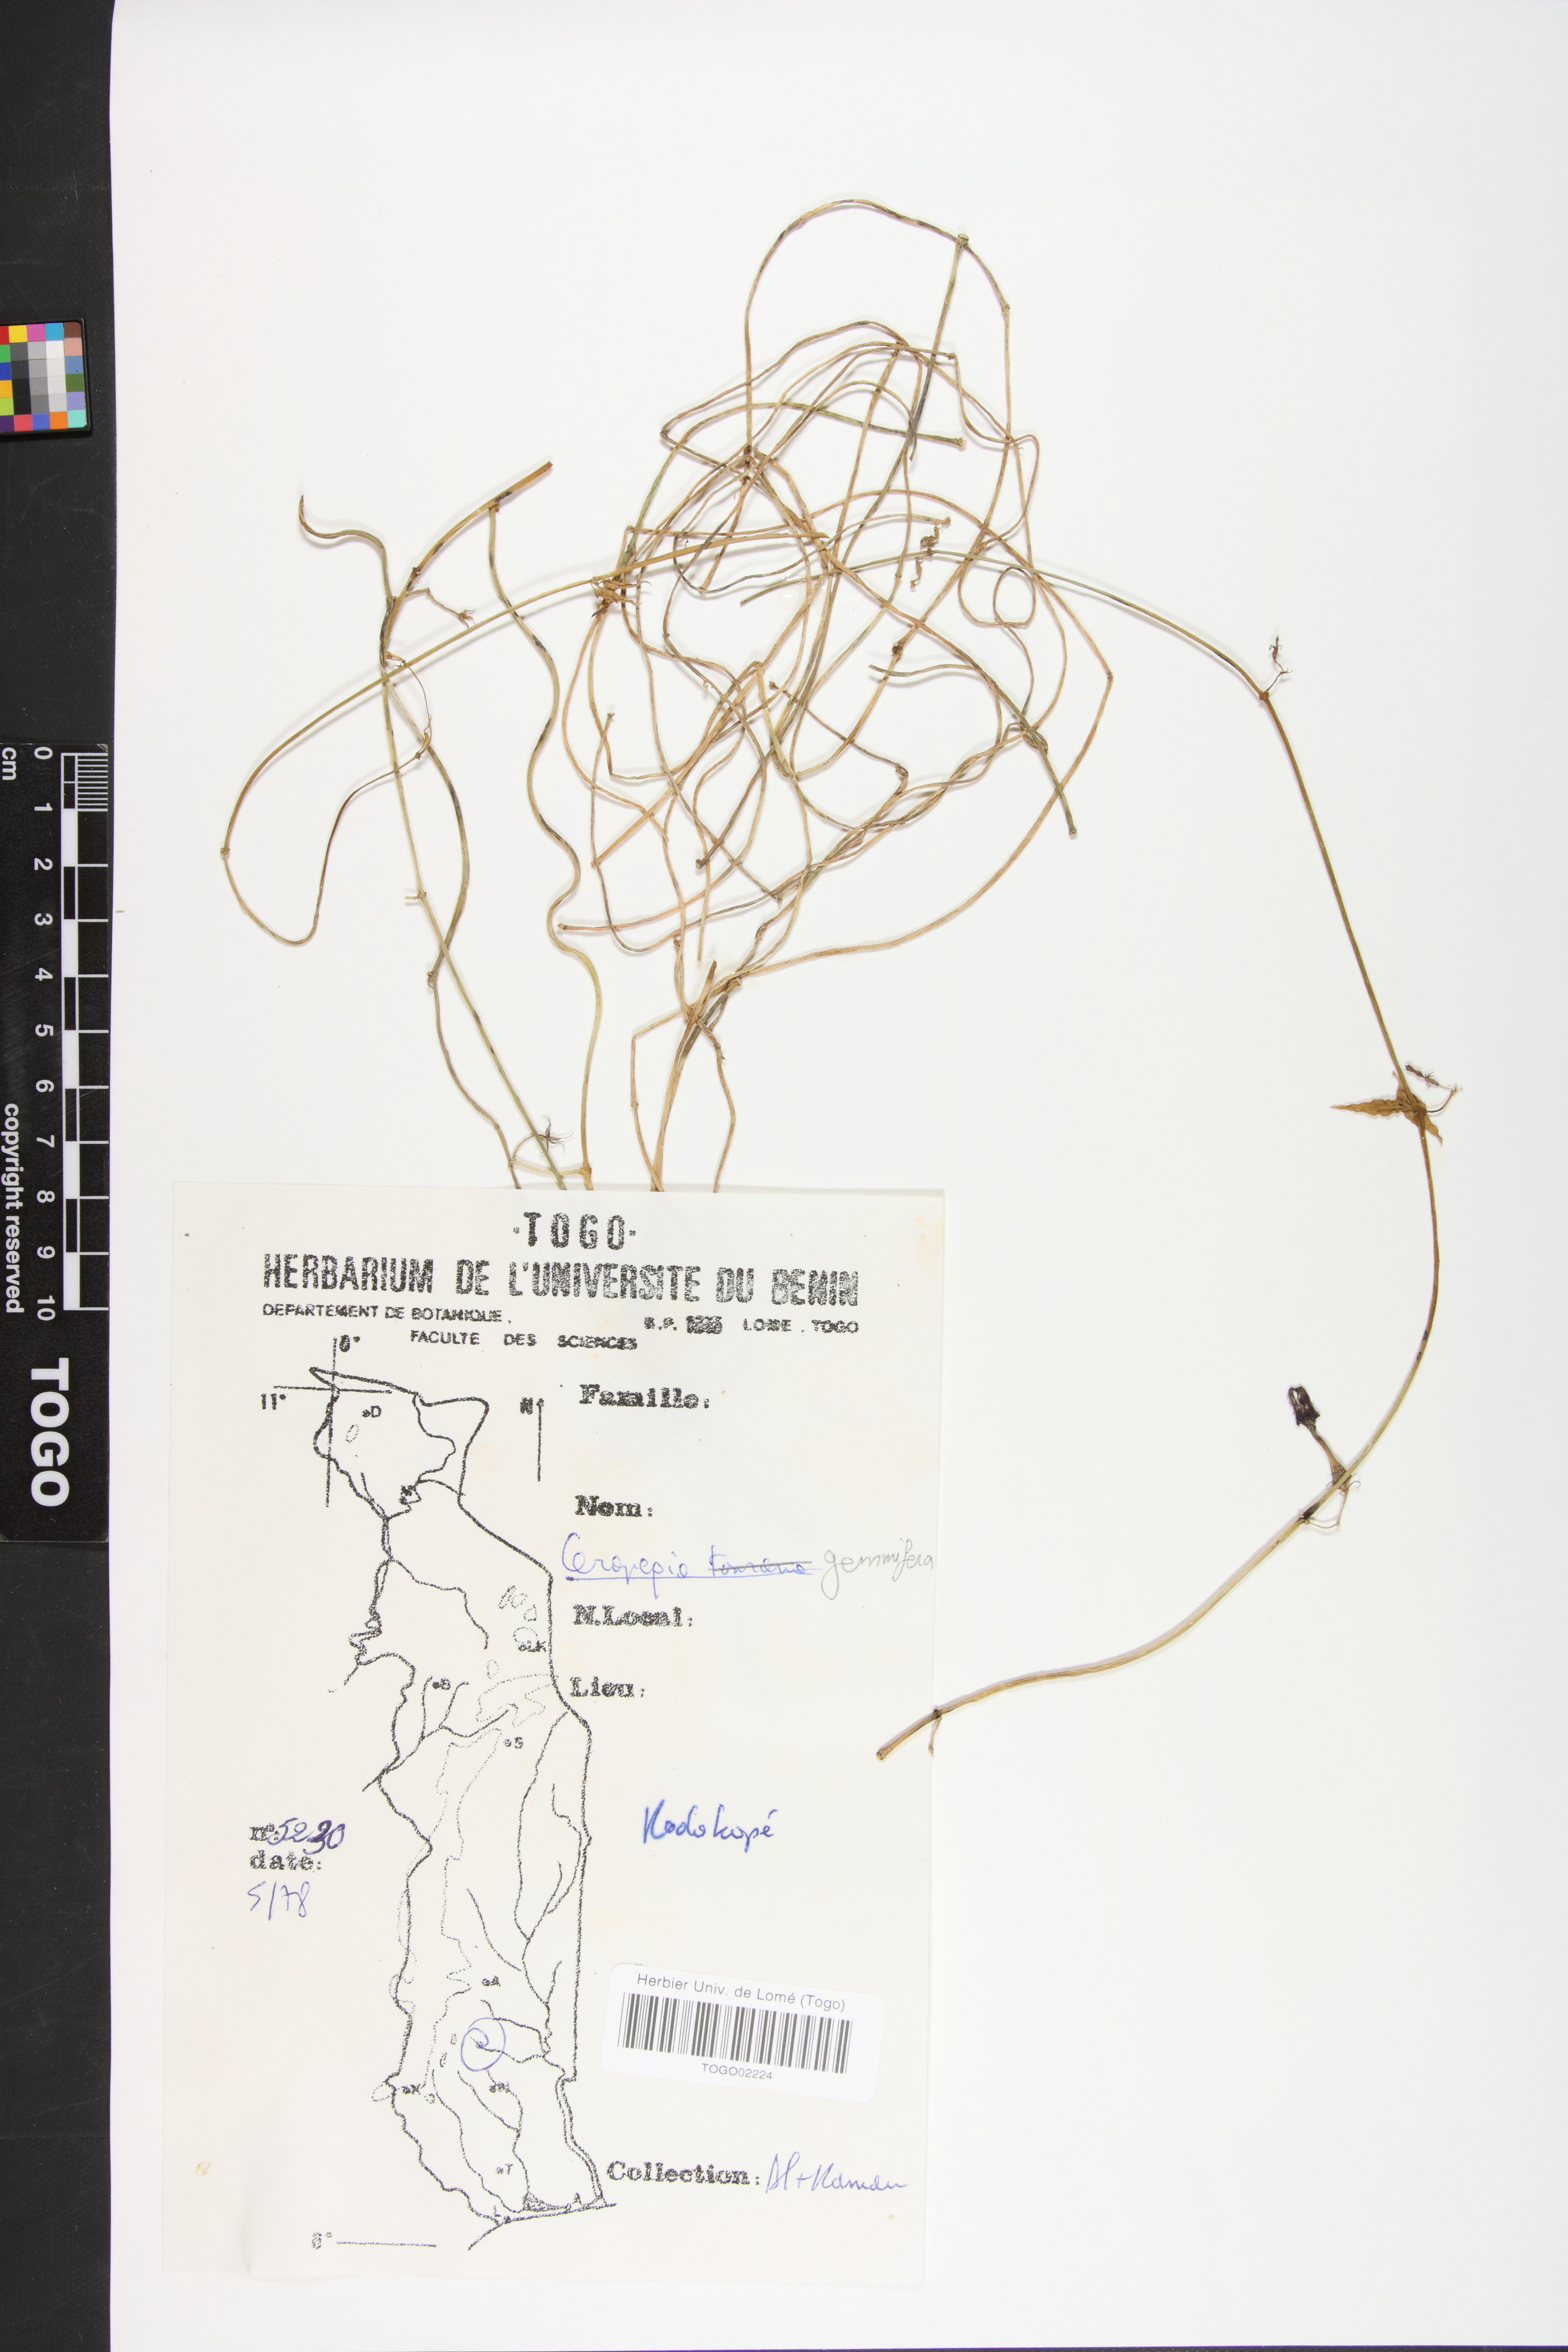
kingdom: Plantae
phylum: Tracheophyta
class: Magnoliopsida
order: Gentianales
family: Apocynaceae
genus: Ceropegia
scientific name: Ceropegia nilotica
